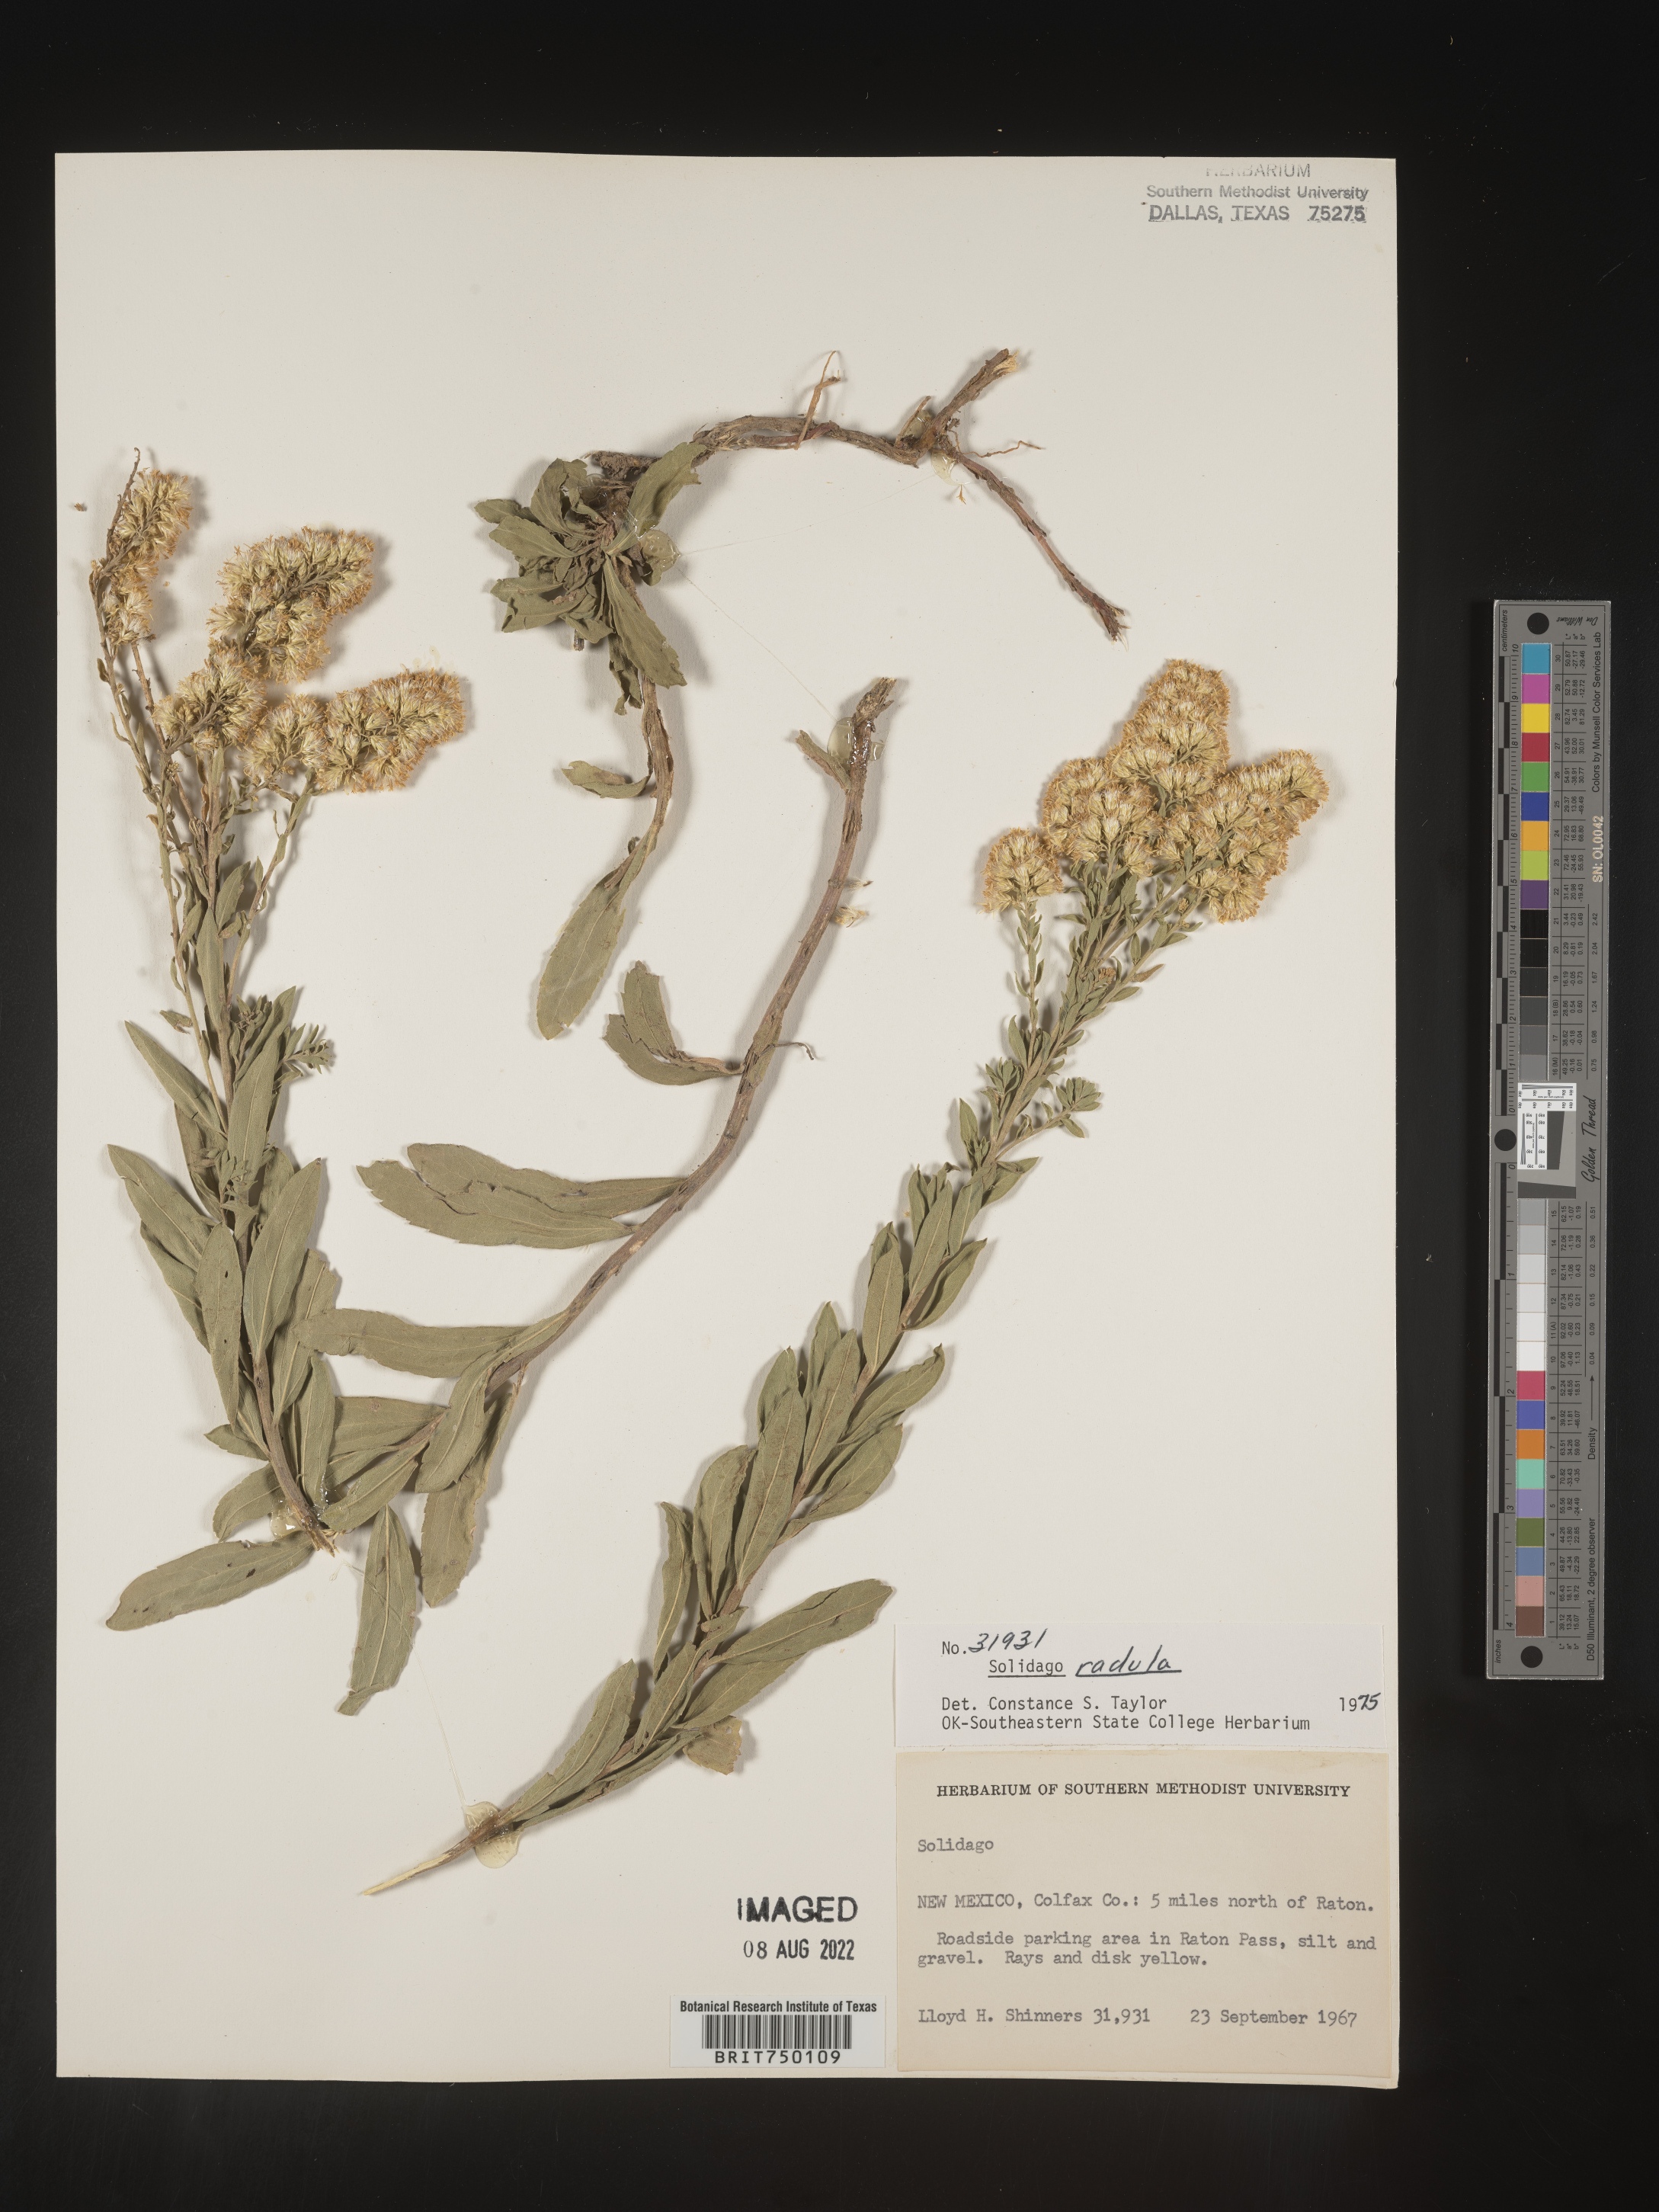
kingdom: Plantae
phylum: Tracheophyta
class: Magnoliopsida
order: Asterales
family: Asteraceae
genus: Solidago
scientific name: Solidago velutina
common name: Three-nerve goldenrod
